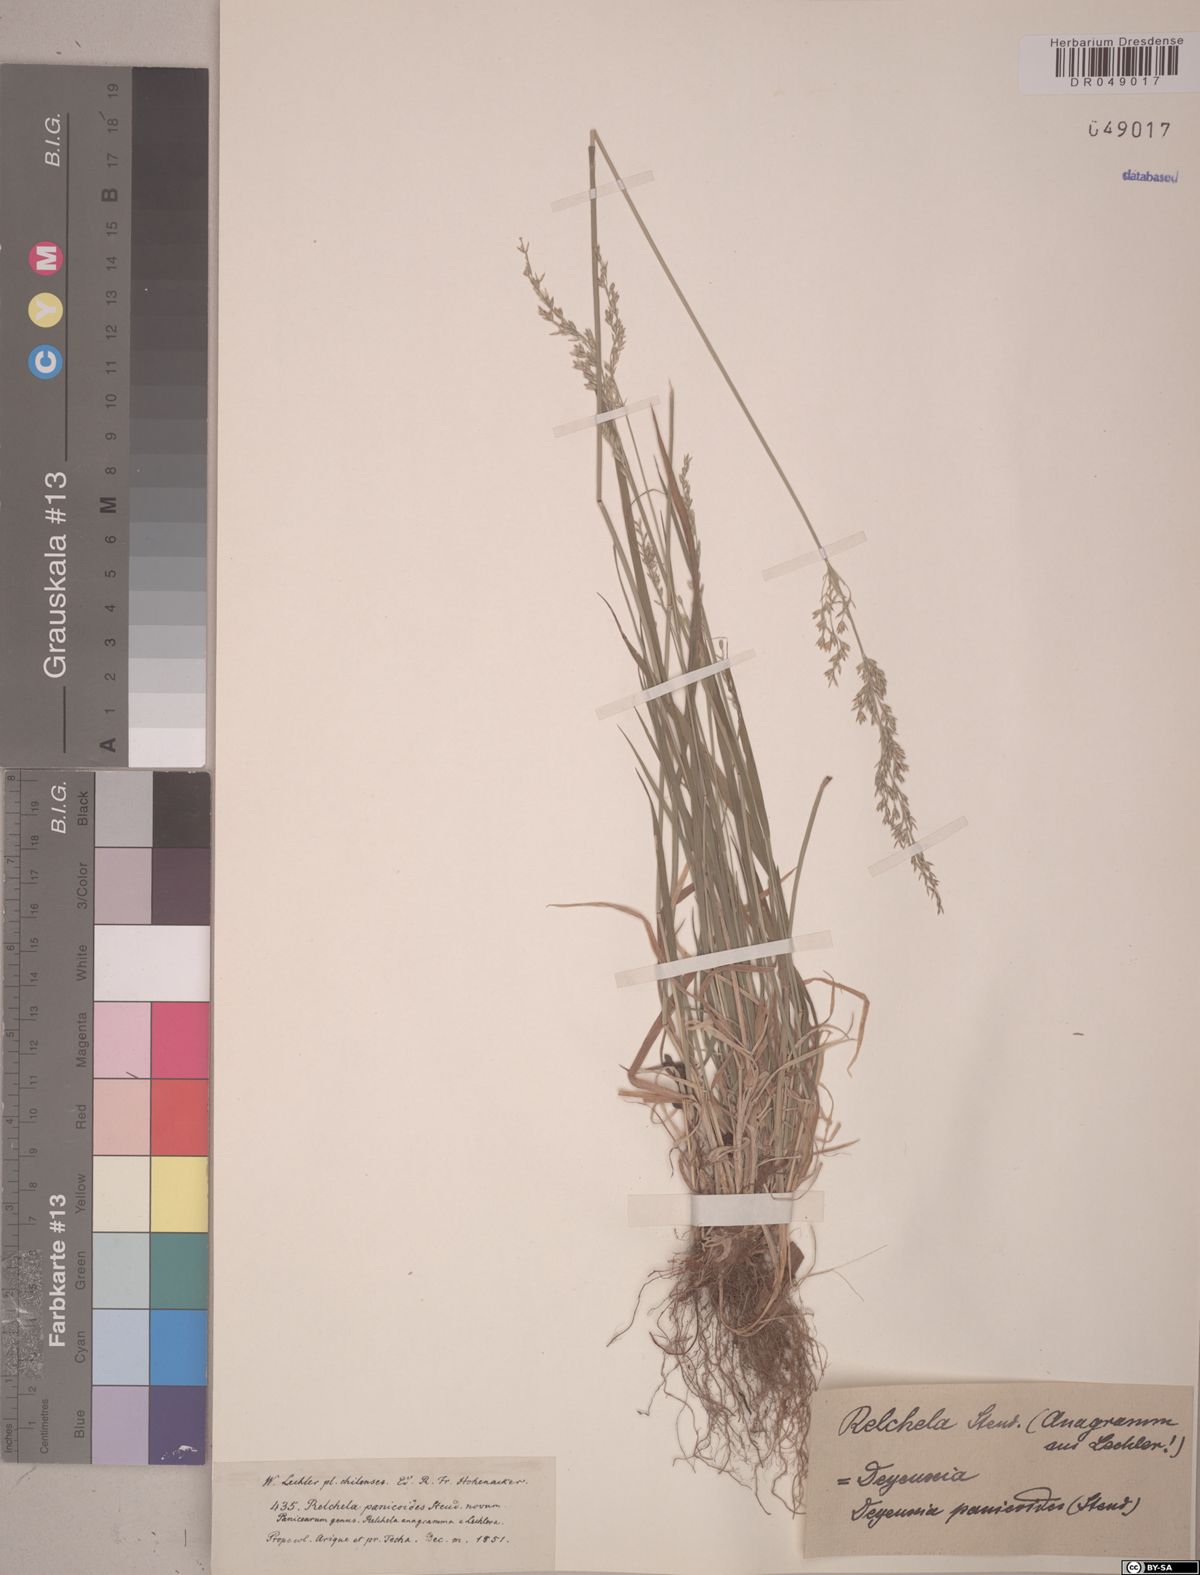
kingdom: Plantae
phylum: Tracheophyta
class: Liliopsida
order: Poales
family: Poaceae
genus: Relchela
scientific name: Relchela panicoides
